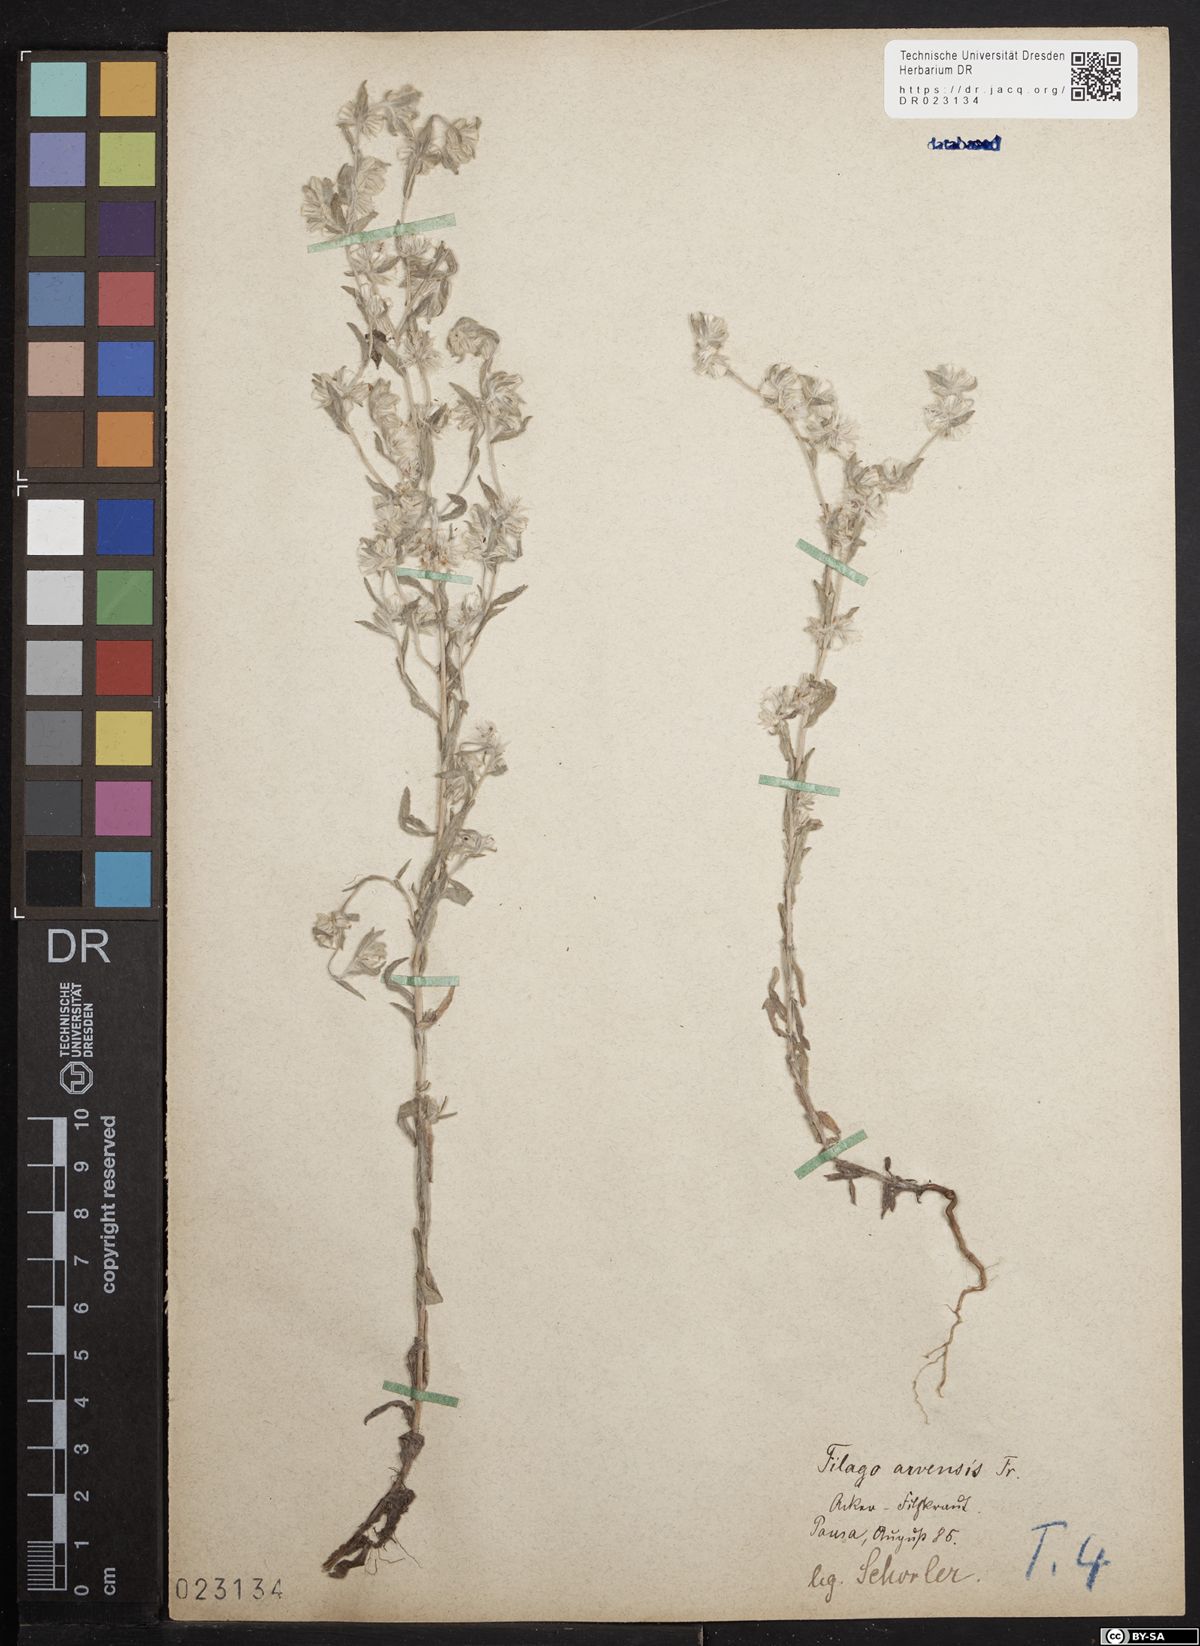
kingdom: Plantae
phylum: Tracheophyta
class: Magnoliopsida
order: Asterales
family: Asteraceae
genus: Filago
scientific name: Filago arvensis
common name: Field cudweed
